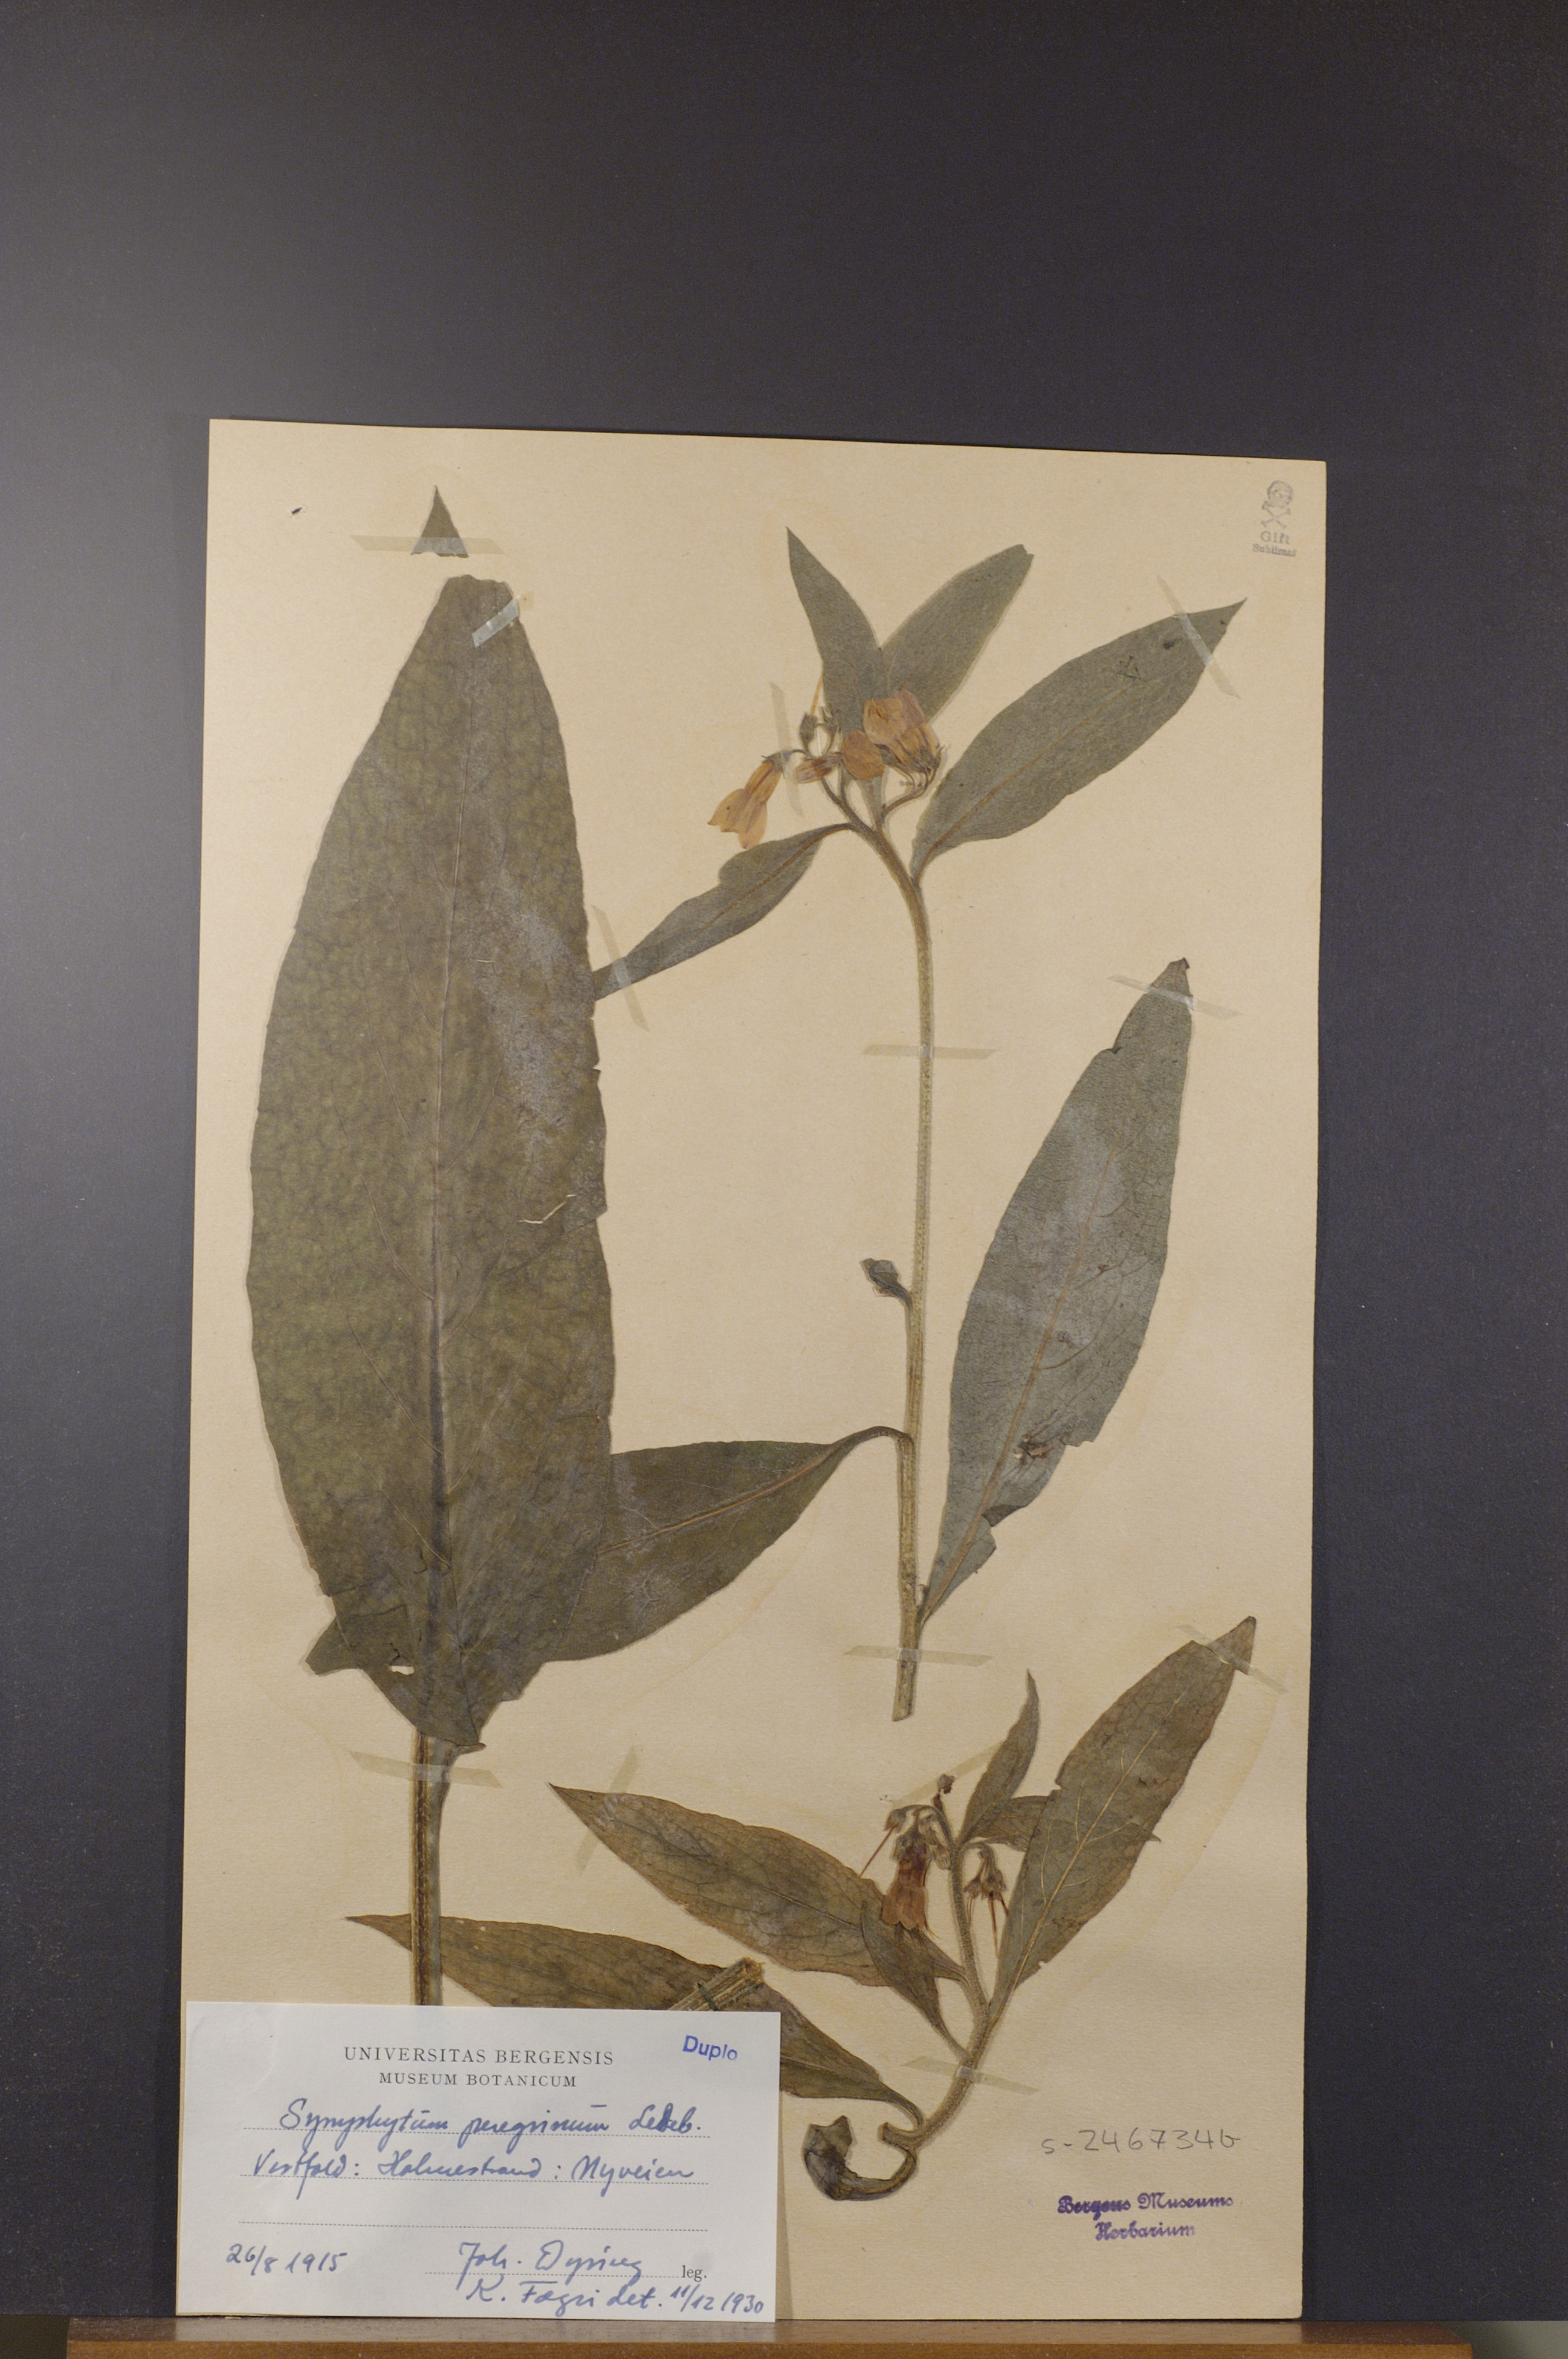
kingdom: Plantae
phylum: Tracheophyta
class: Magnoliopsida
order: Boraginales
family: Boraginaceae
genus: Symphytum
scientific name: Symphytum uplandicum
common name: Russian comfrey
